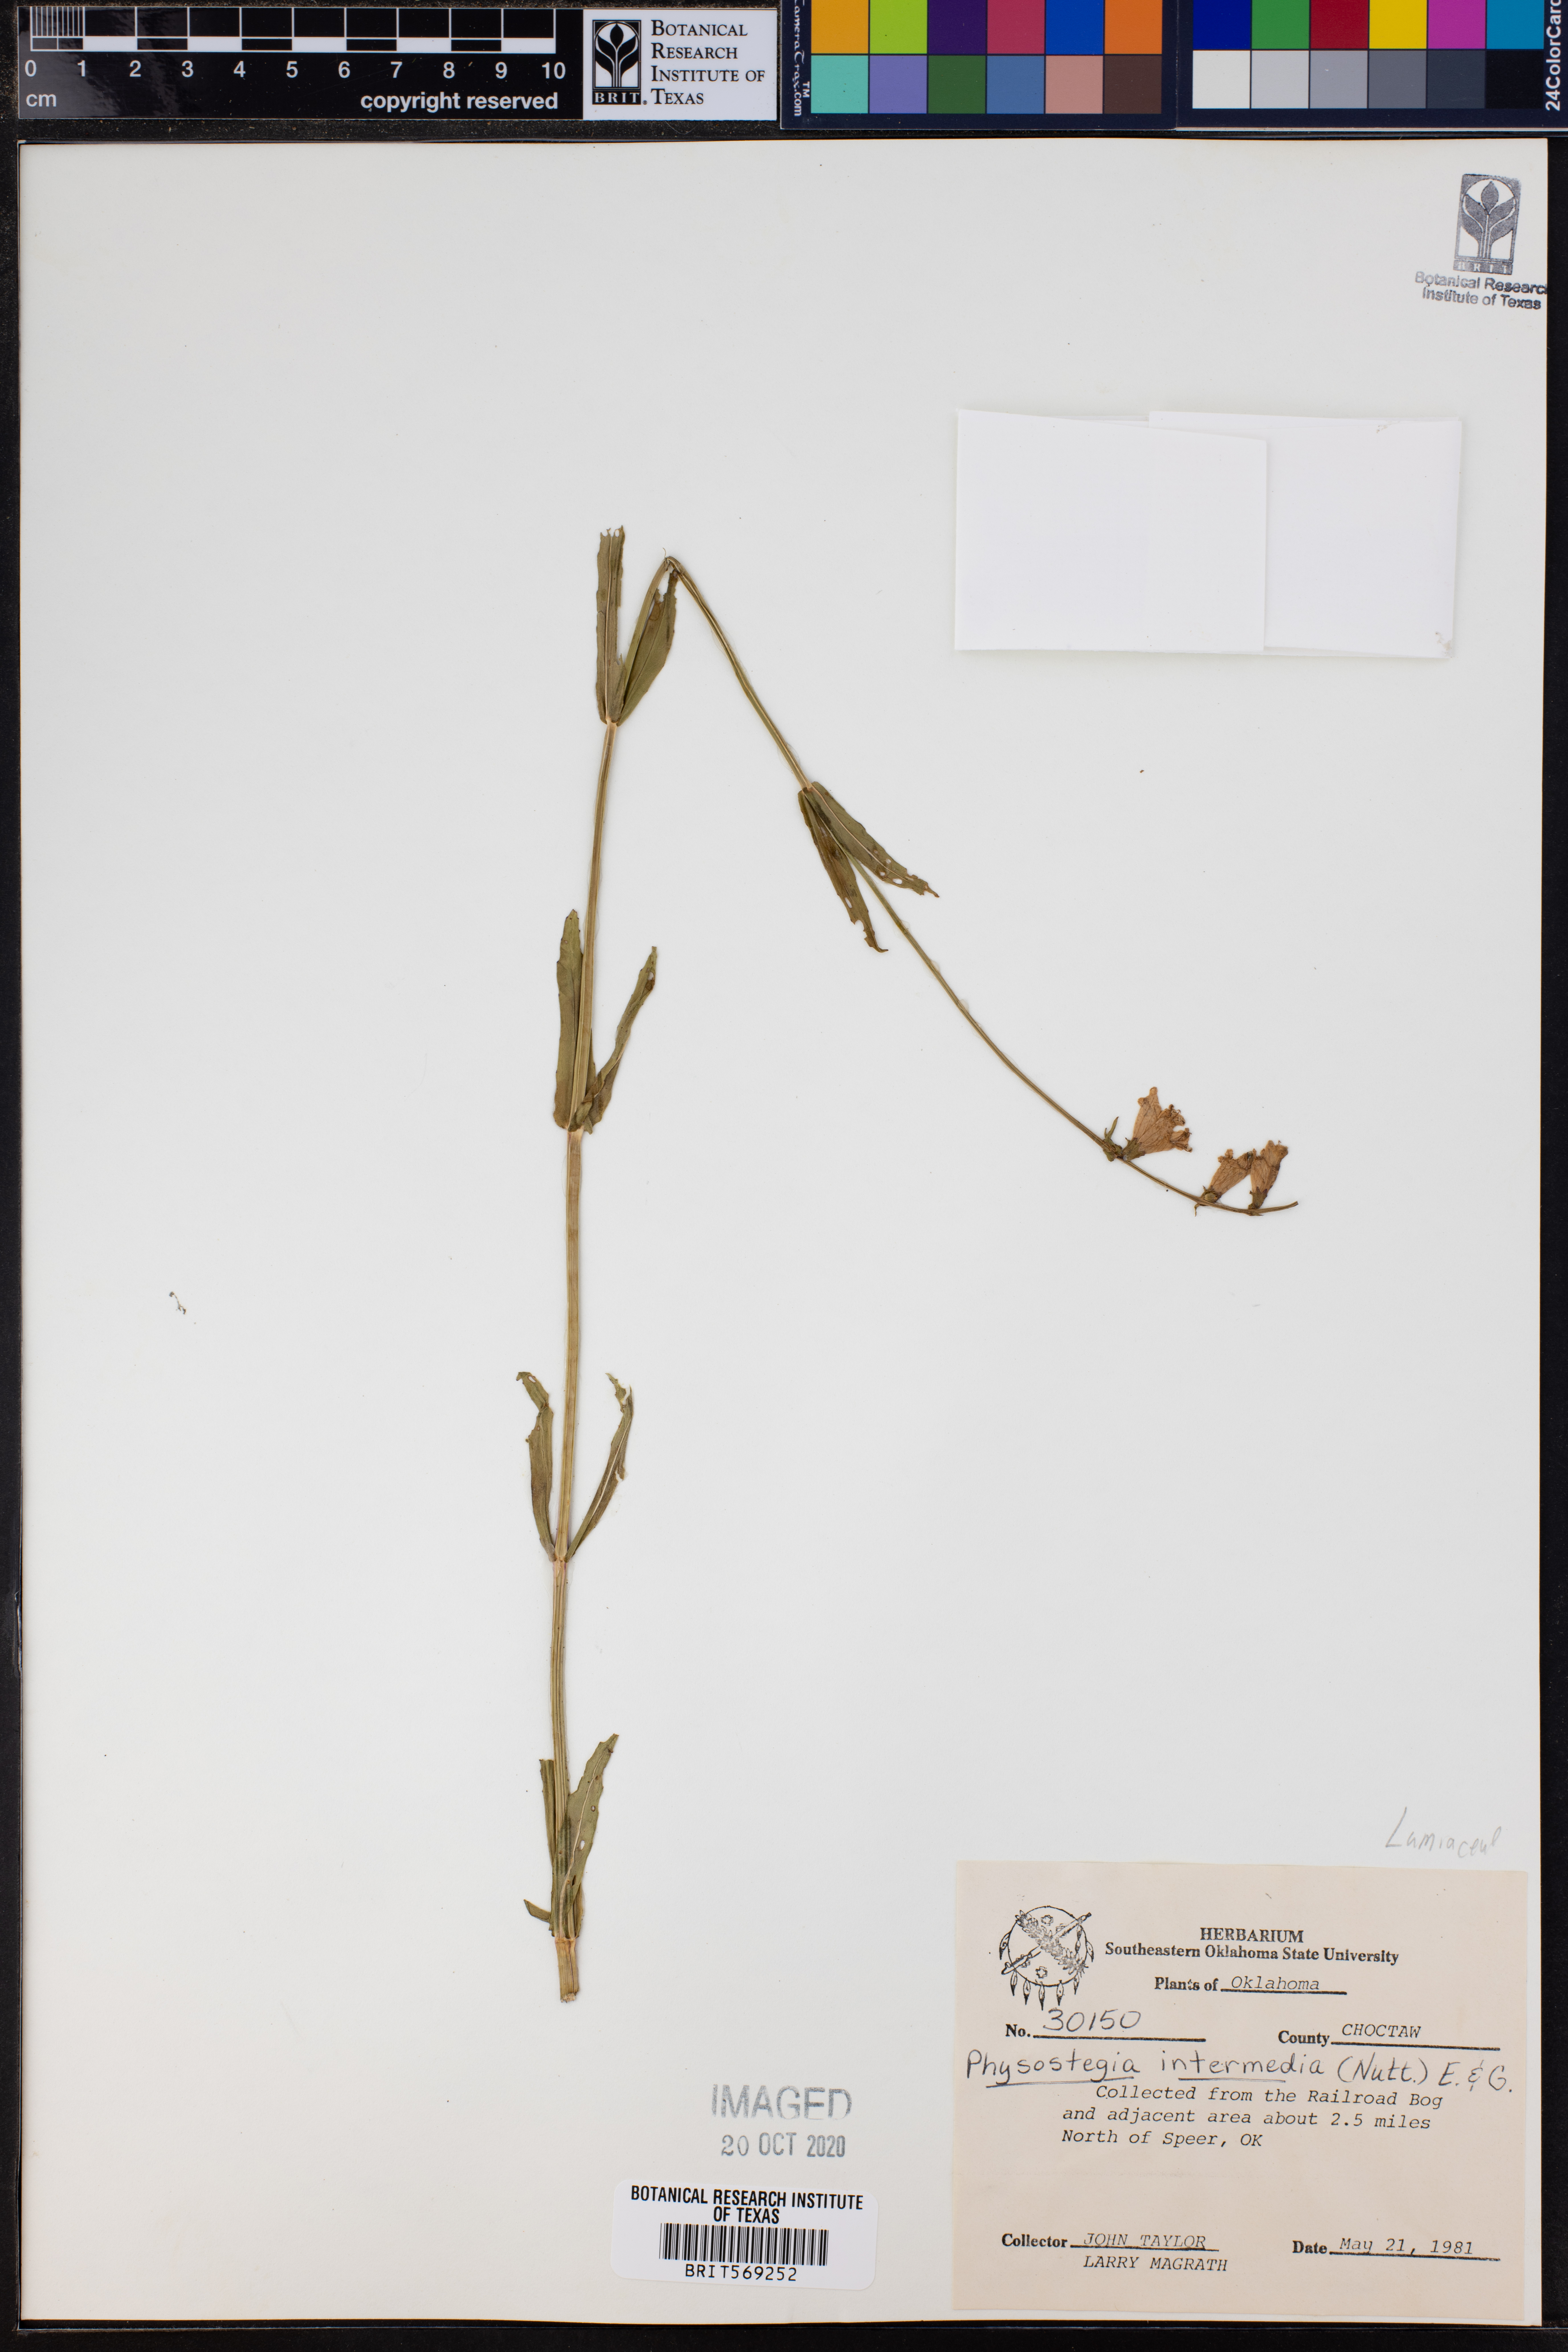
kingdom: Plantae
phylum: Tracheophyta
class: Magnoliopsida
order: Lamiales
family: Lamiaceae
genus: Physostegia
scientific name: Physostegia intermedia
